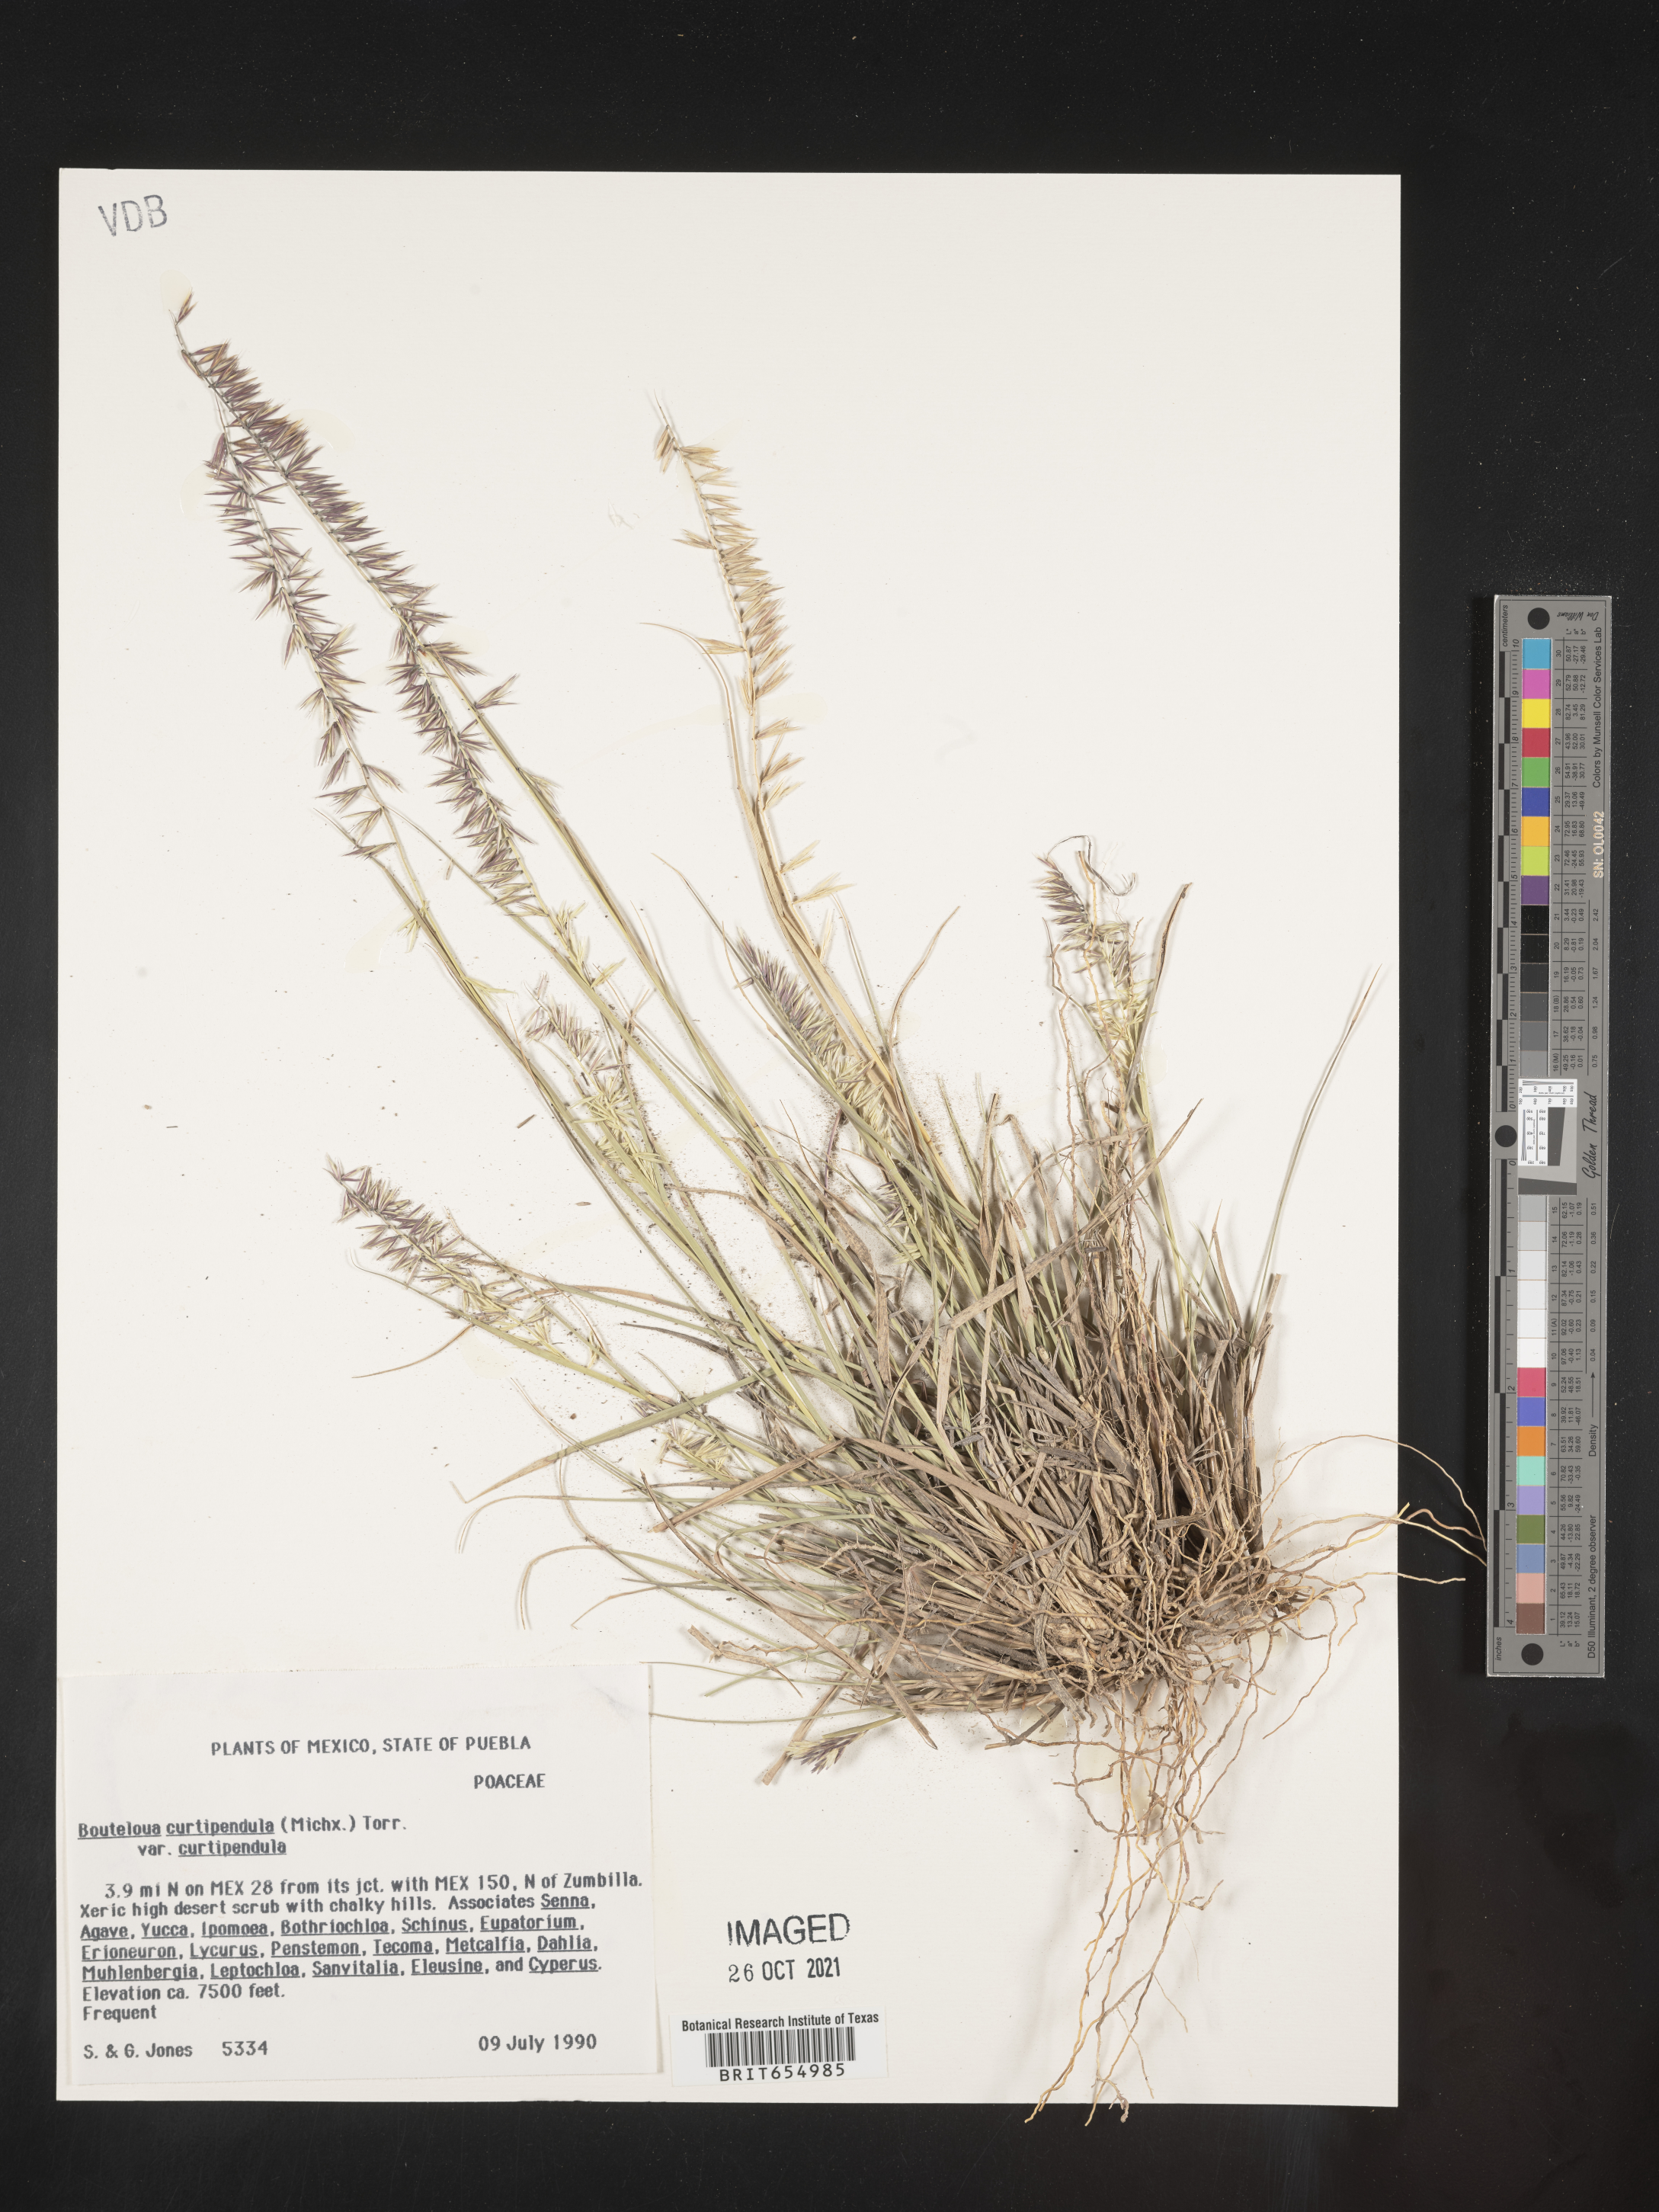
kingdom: Plantae
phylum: Tracheophyta
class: Liliopsida
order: Poales
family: Poaceae
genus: Bouteloua
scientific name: Bouteloua
